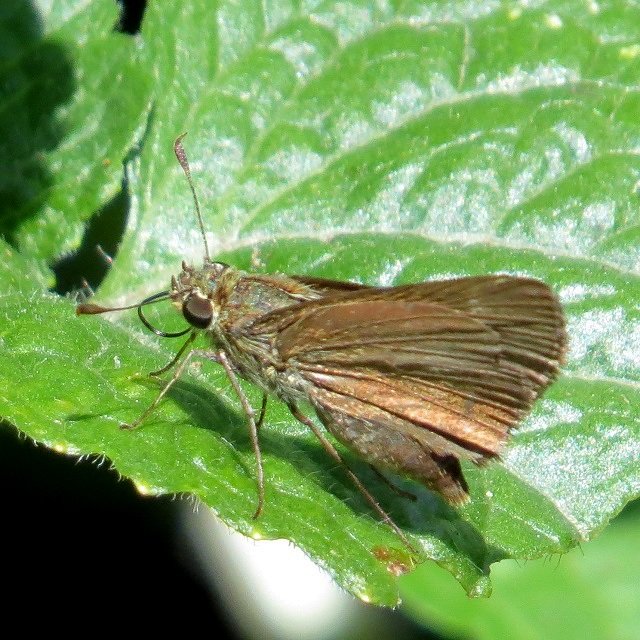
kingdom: Animalia
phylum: Arthropoda
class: Insecta
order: Lepidoptera
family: Hesperiidae
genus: Euphyes
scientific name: Euphyes vestris
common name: Dun Skipper
